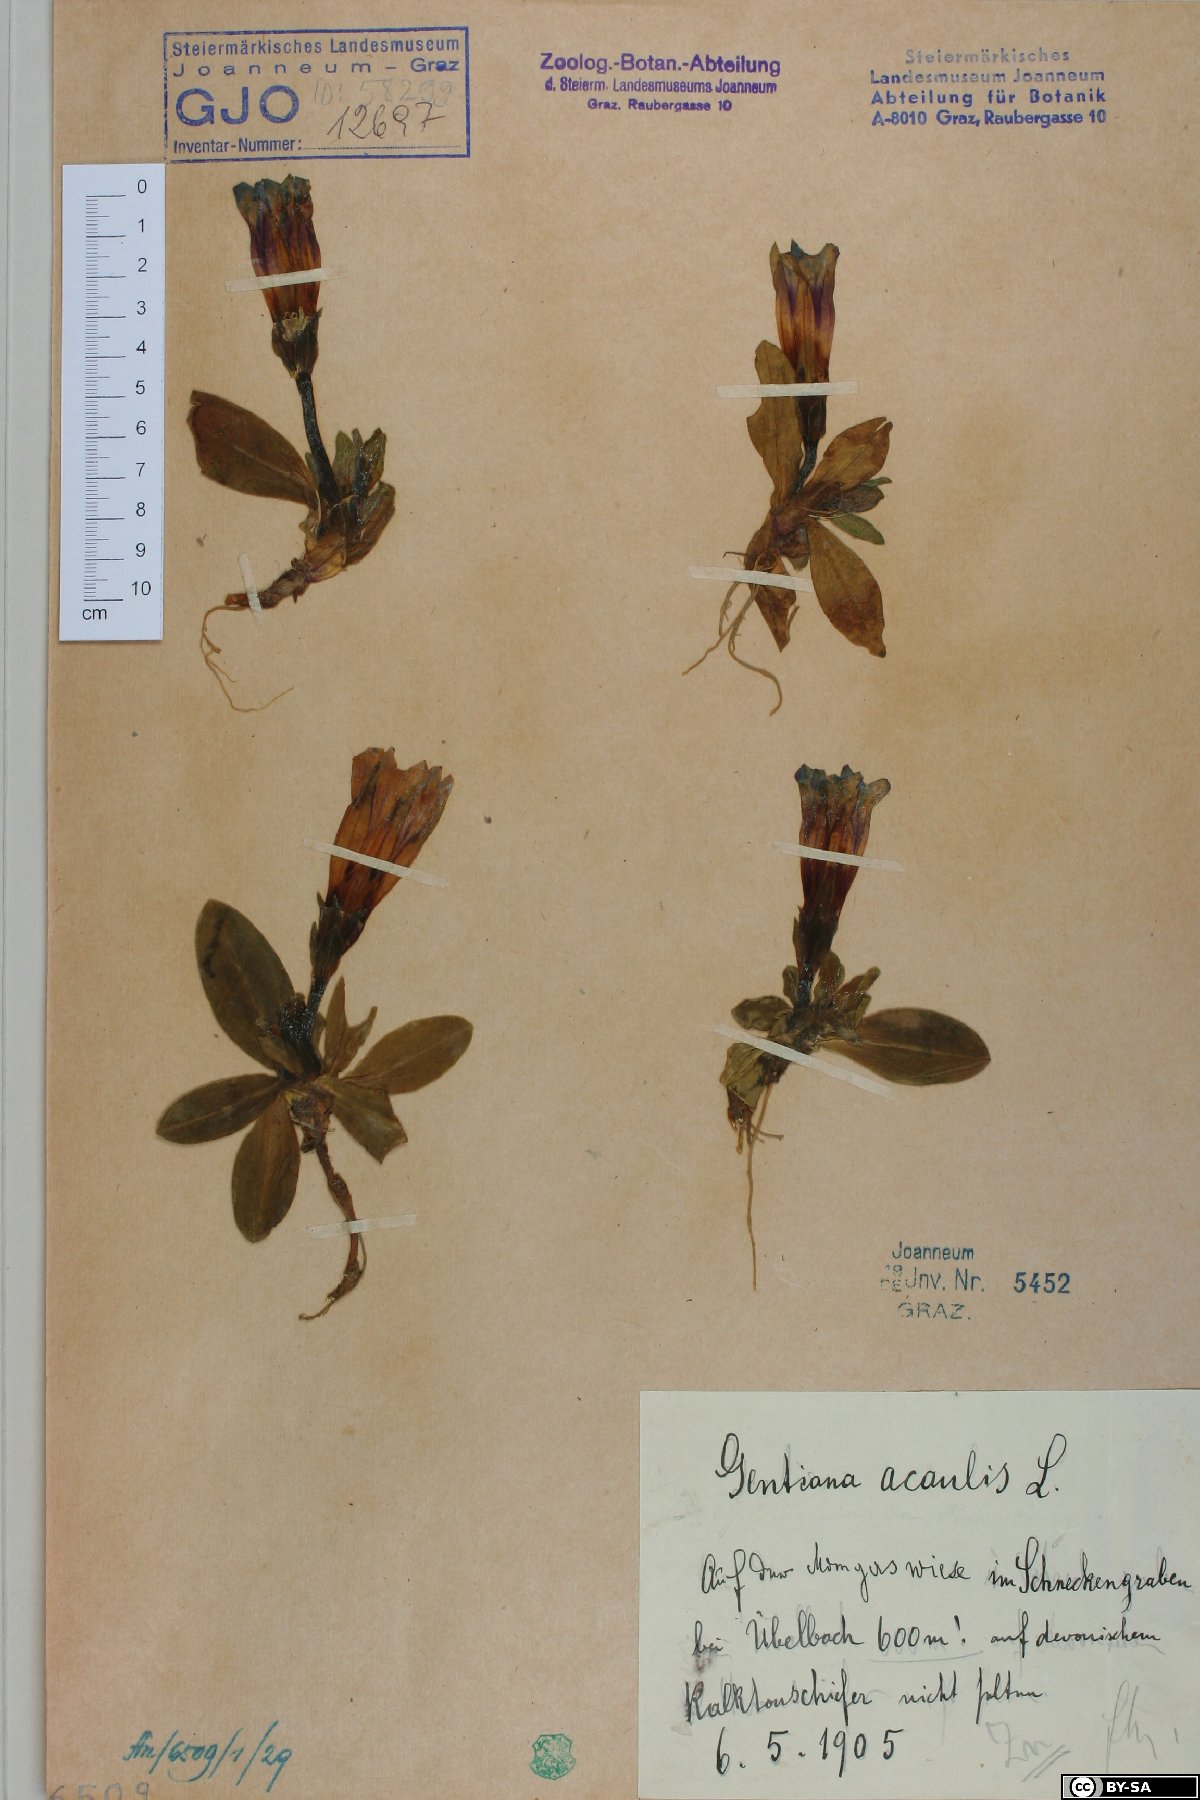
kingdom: Plantae
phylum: Tracheophyta
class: Magnoliopsida
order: Gentianales
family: Gentianaceae
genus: Gentiana
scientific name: Gentiana acaulis
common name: Trumpet gentian
